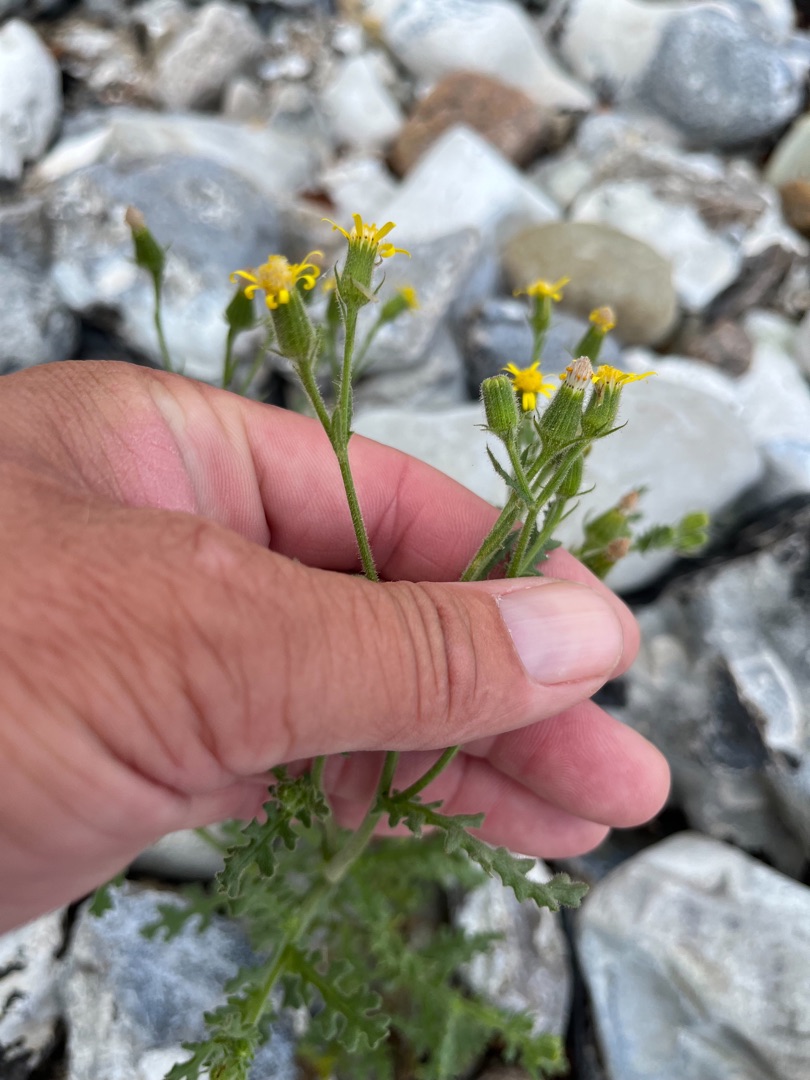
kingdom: Plantae
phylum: Tracheophyta
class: Magnoliopsida
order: Asterales
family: Asteraceae
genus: Senecio
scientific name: Senecio viscosus
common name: Klæbrig brandbæger
